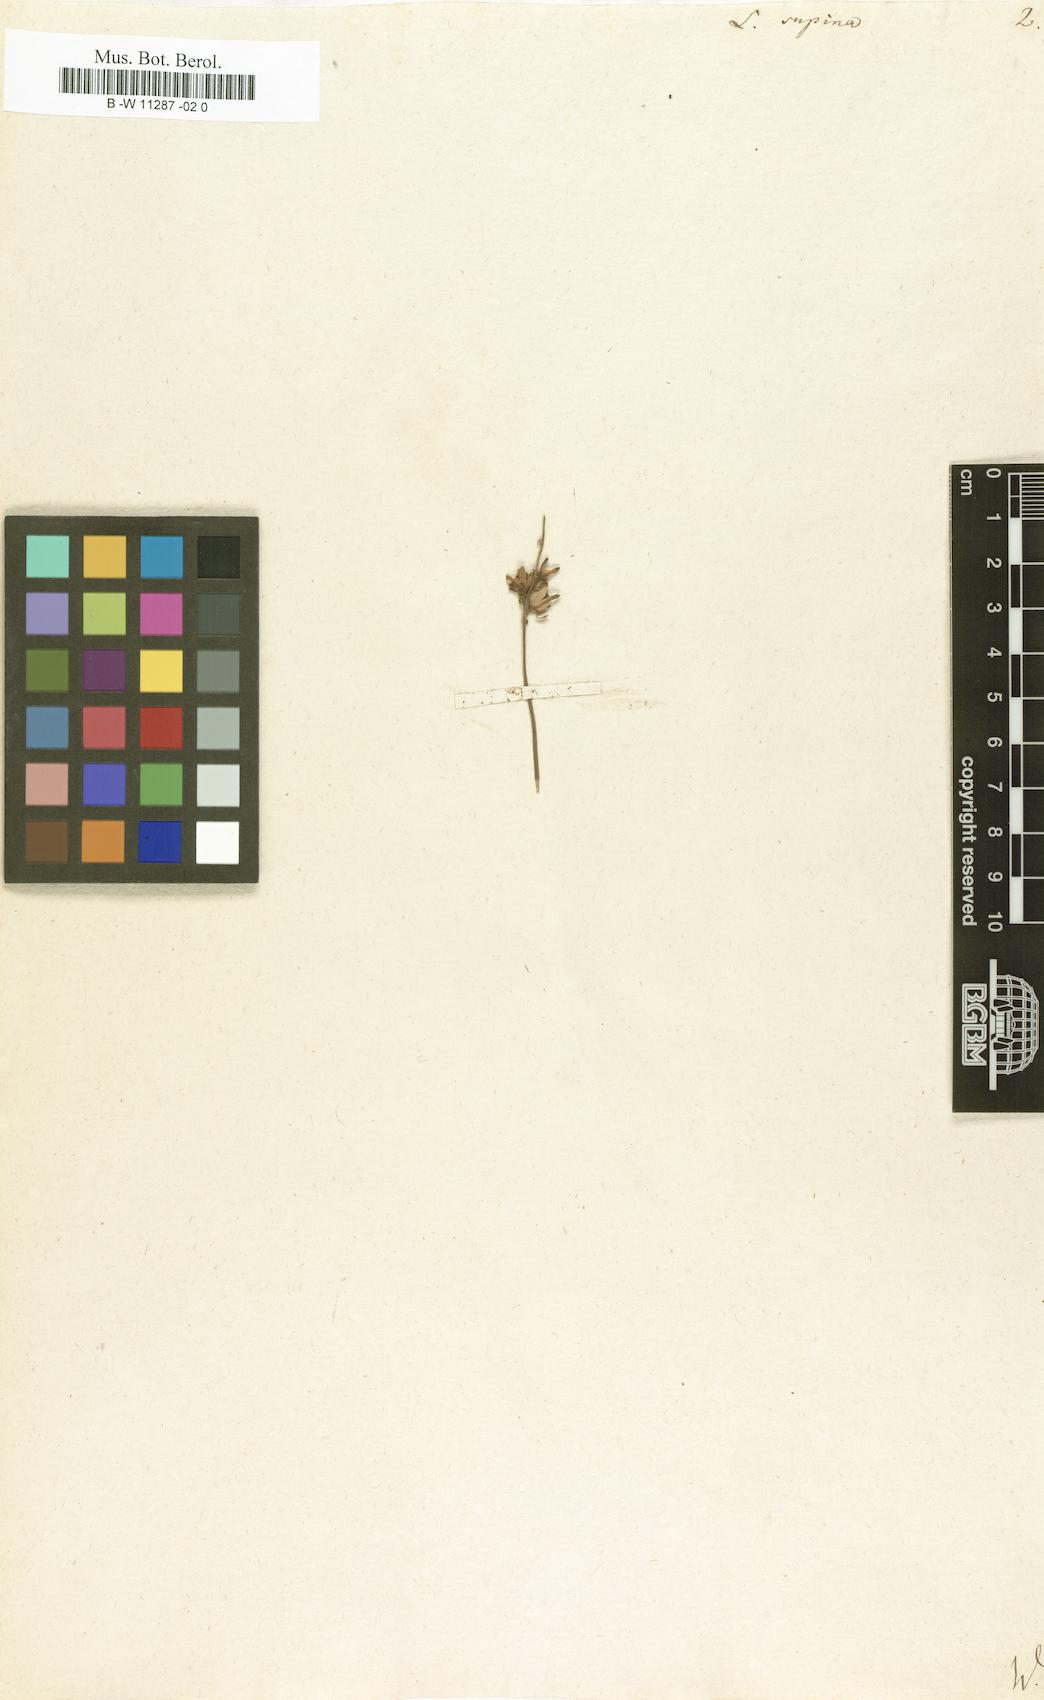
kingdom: Plantae
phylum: Tracheophyta
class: Magnoliopsida
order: Lamiales
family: Plantaginaceae
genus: Linaria
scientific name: Linaria supina
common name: Prostrate toadflax
